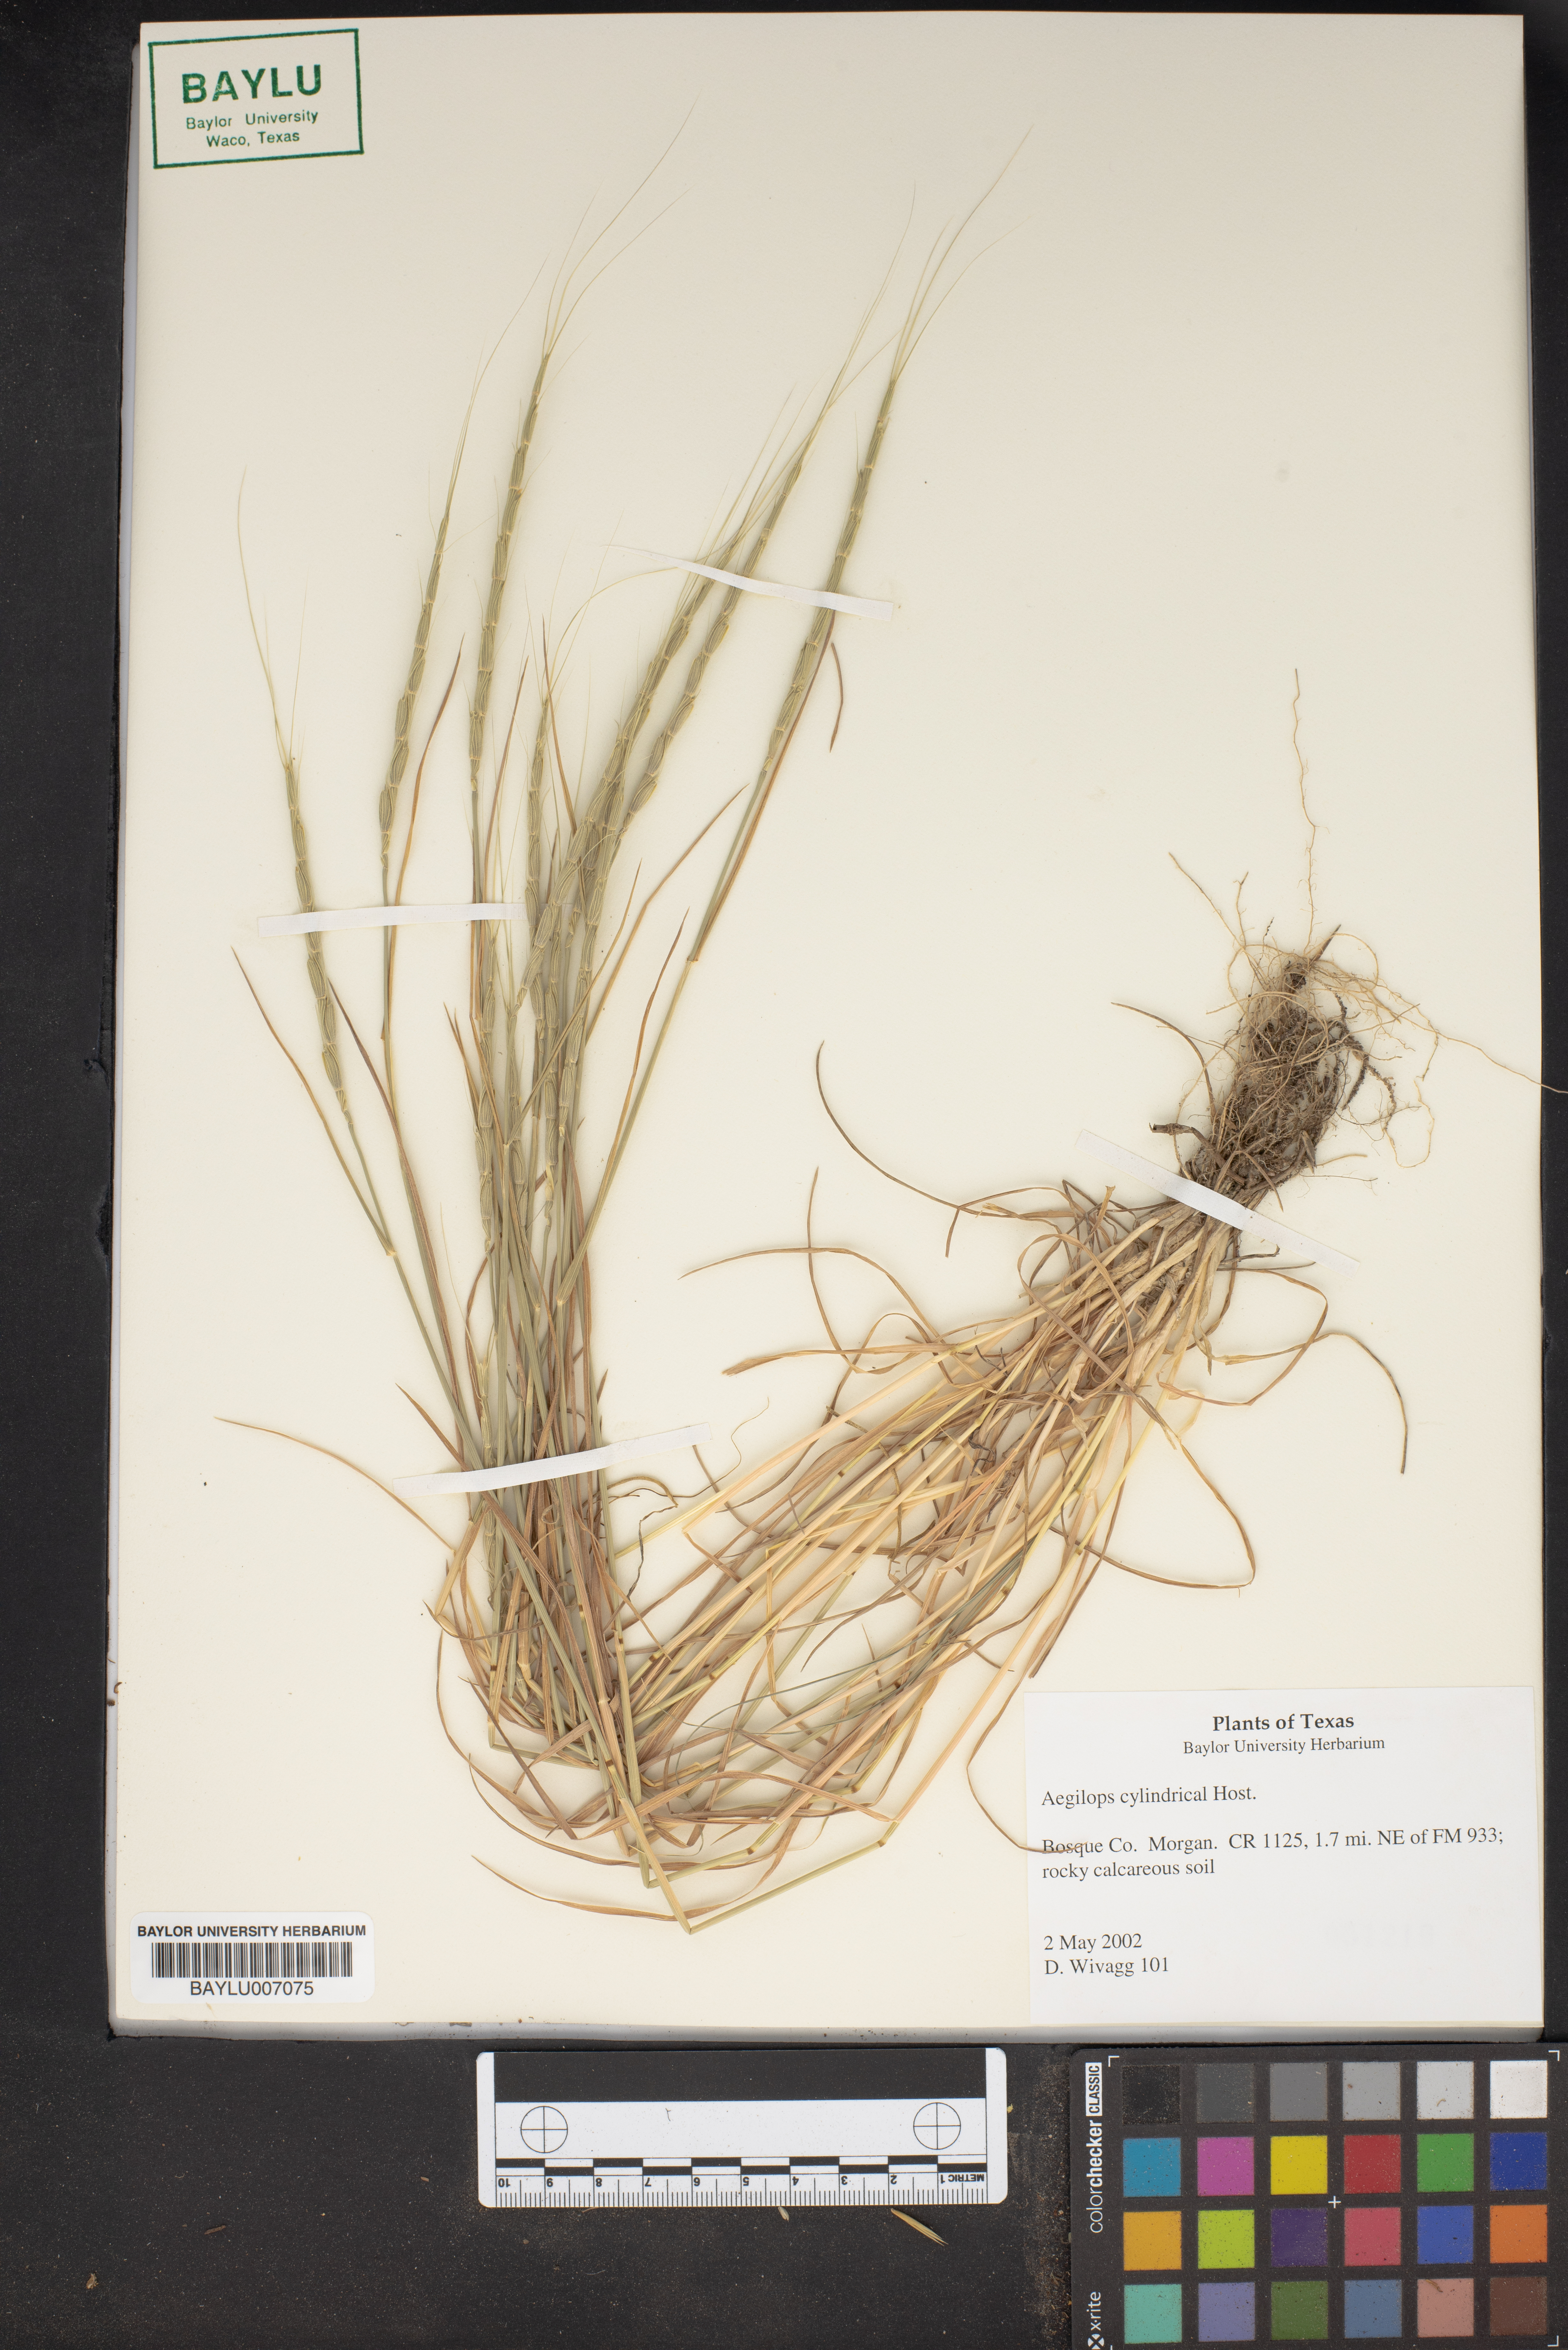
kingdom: Plantae
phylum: Tracheophyta
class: Liliopsida
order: Poales
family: Poaceae
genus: Aegilops
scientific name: Aegilops cylindrica
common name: Jointed goatgrass
